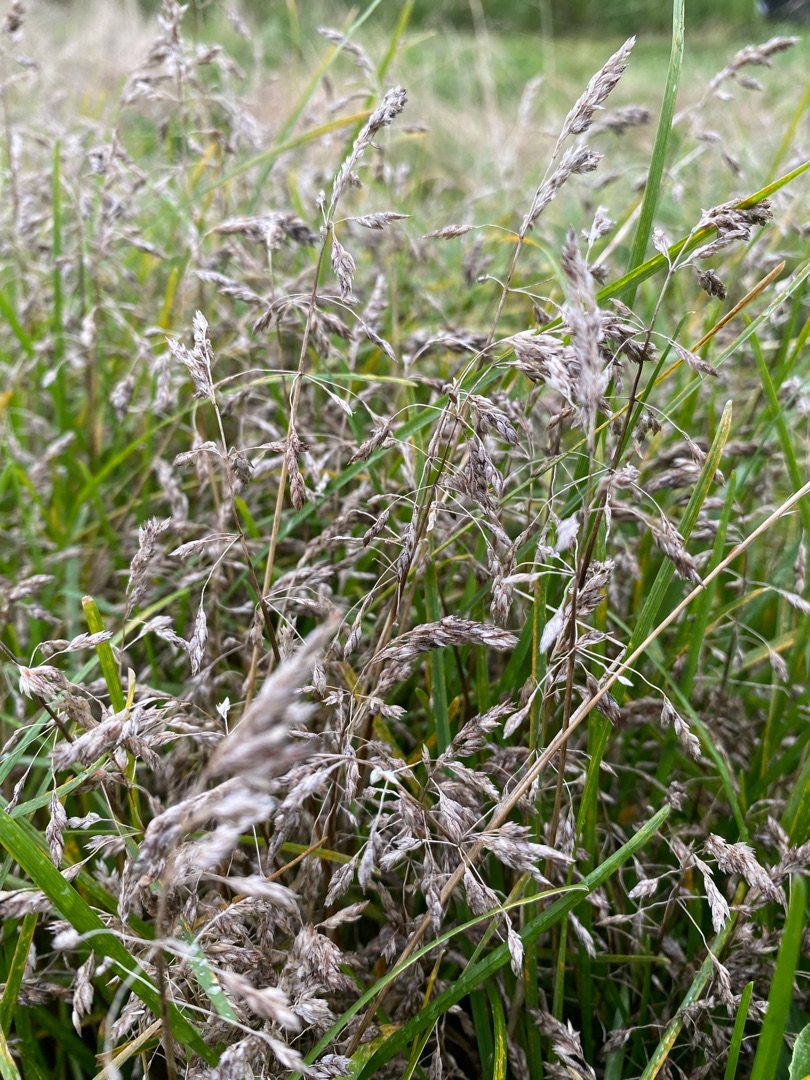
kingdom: Plantae
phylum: Tracheophyta
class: Liliopsida
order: Poales
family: Poaceae
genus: Poa
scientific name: Poa pratensis
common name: Eng-rapgræs
